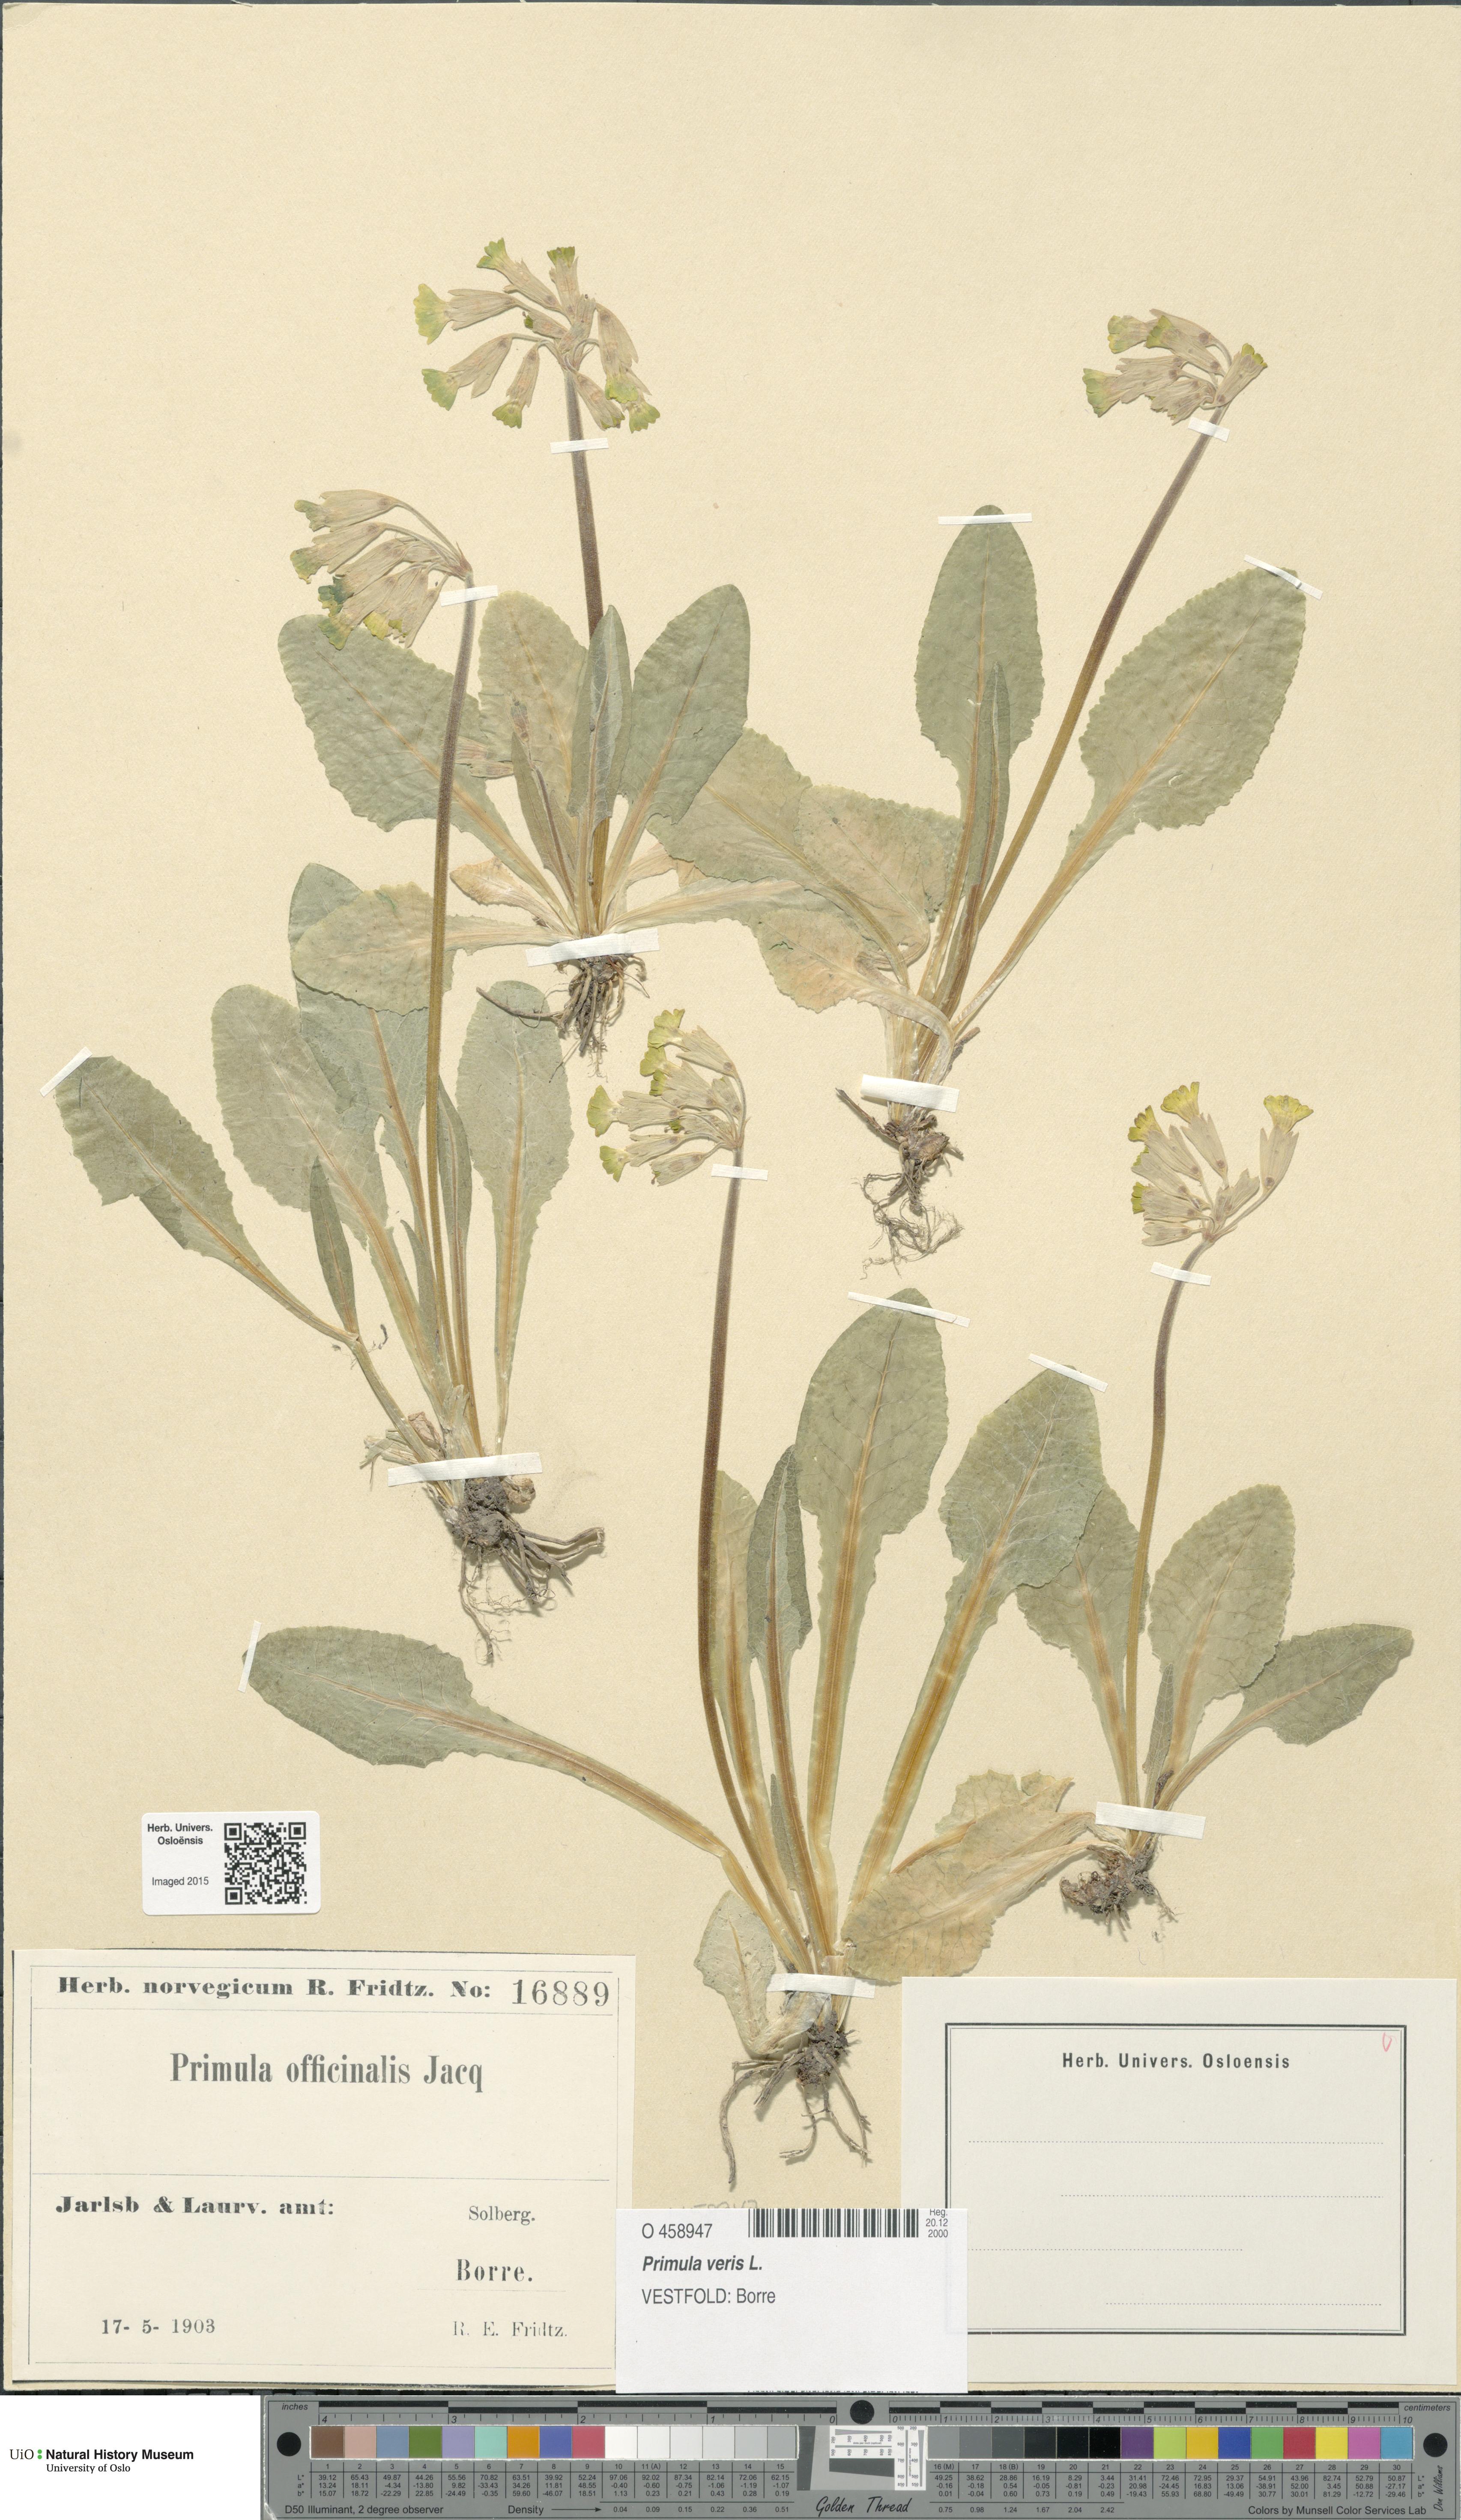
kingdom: Plantae
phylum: Tracheophyta
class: Magnoliopsida
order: Ericales
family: Primulaceae
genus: Primula
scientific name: Primula veris
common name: Cowslip
